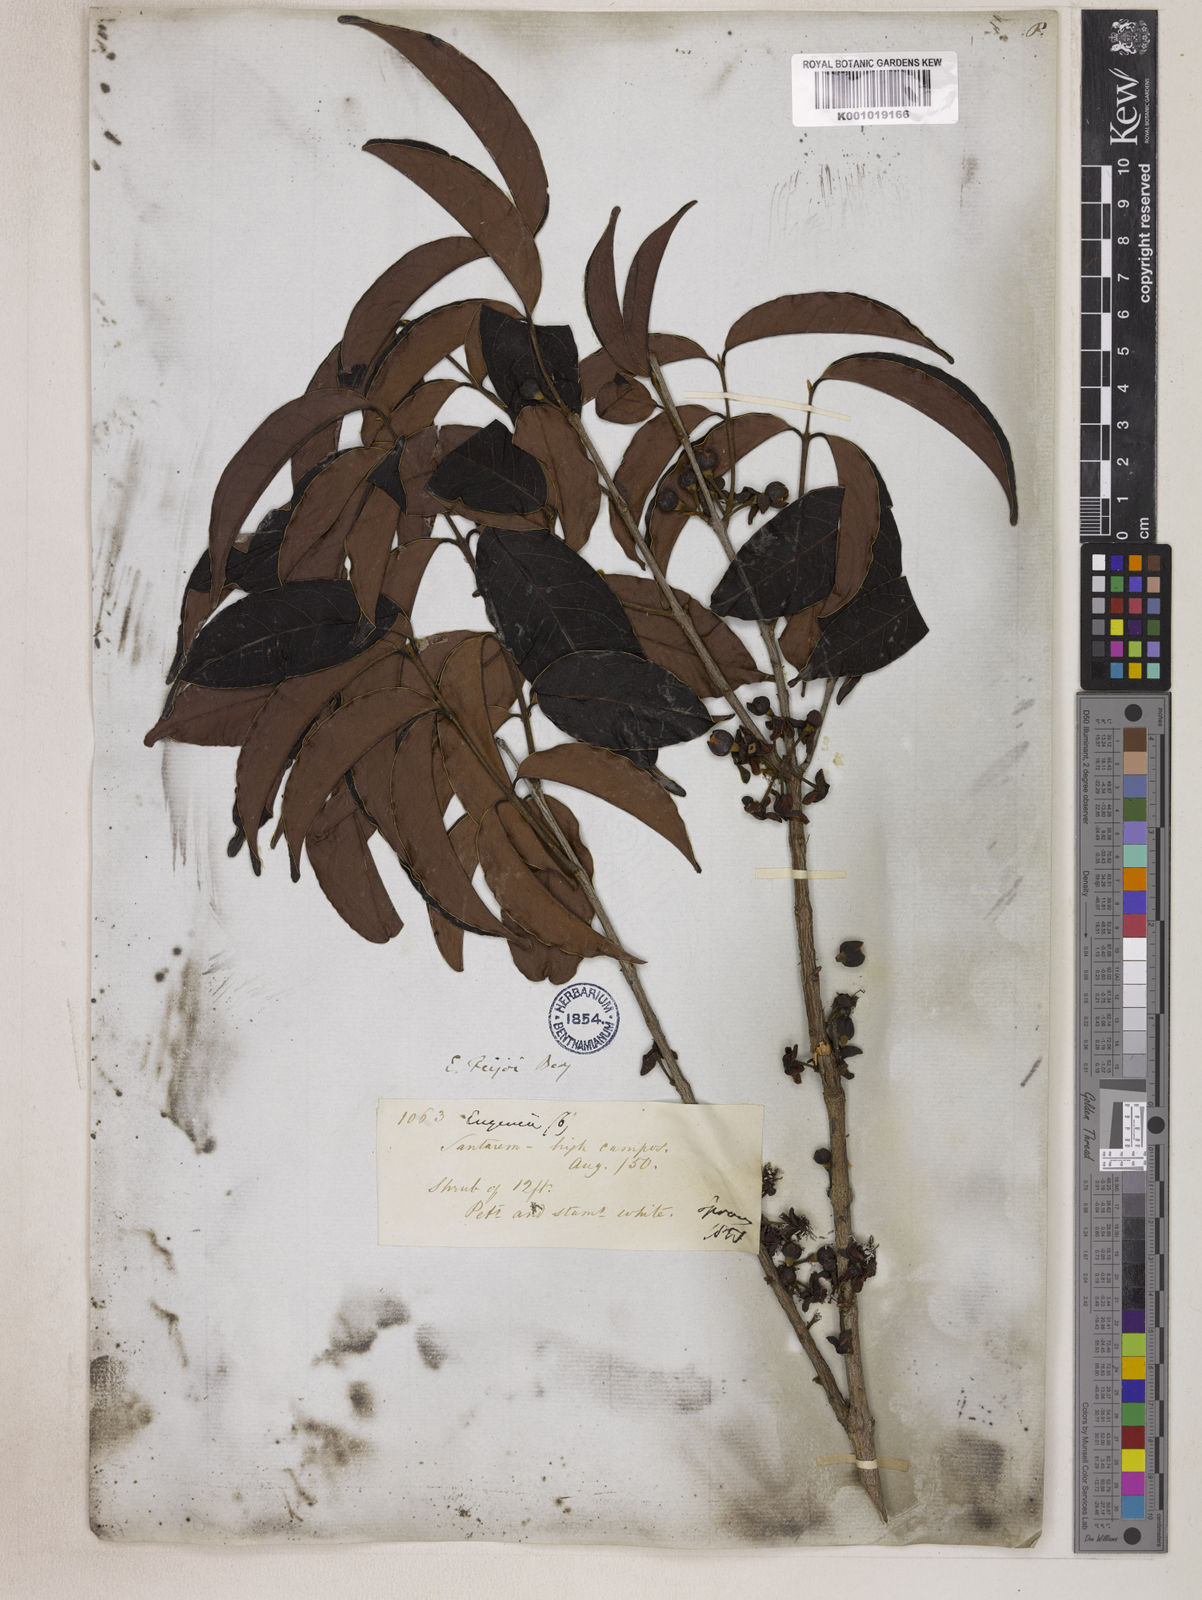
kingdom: Plantae
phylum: Tracheophyta
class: Magnoliopsida
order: Myrtales
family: Myrtaceae
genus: Eugenia
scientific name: Eugenia moschata
